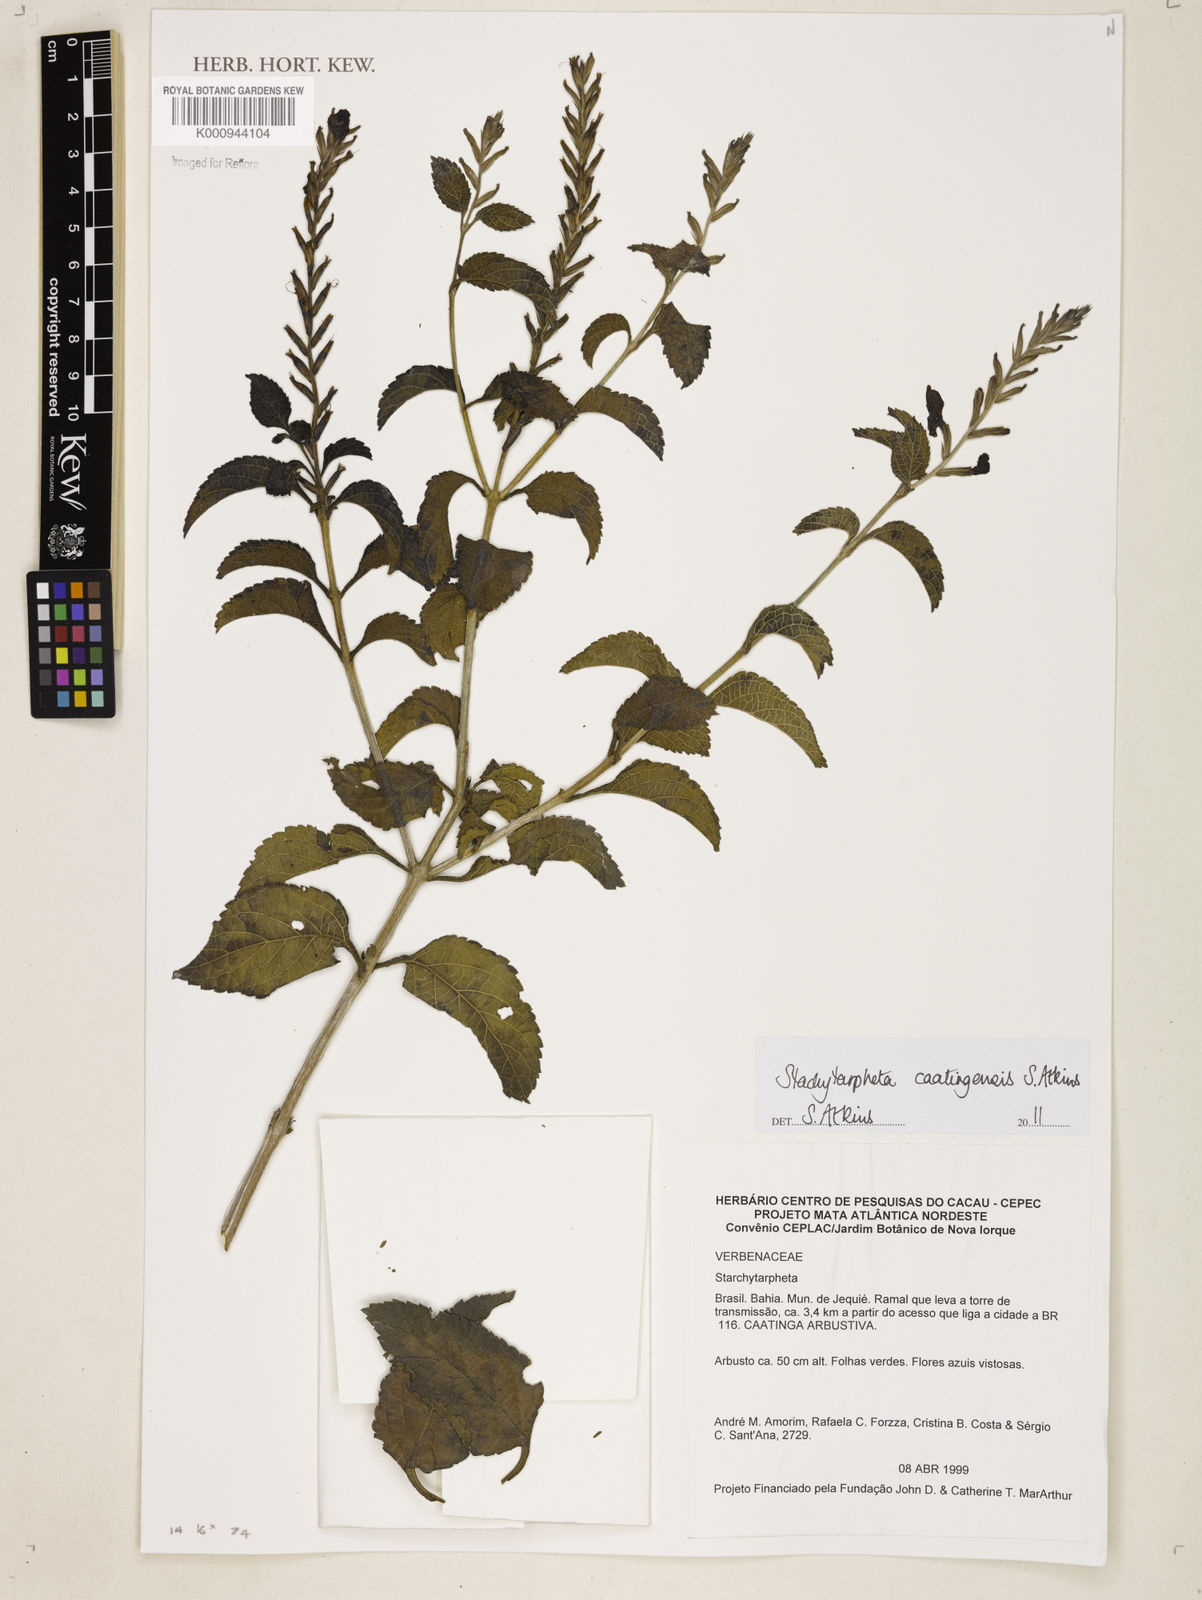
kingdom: Plantae
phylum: Tracheophyta
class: Magnoliopsida
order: Lamiales
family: Verbenaceae
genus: Stachytarpheta
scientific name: Stachytarpheta brasiliensis
